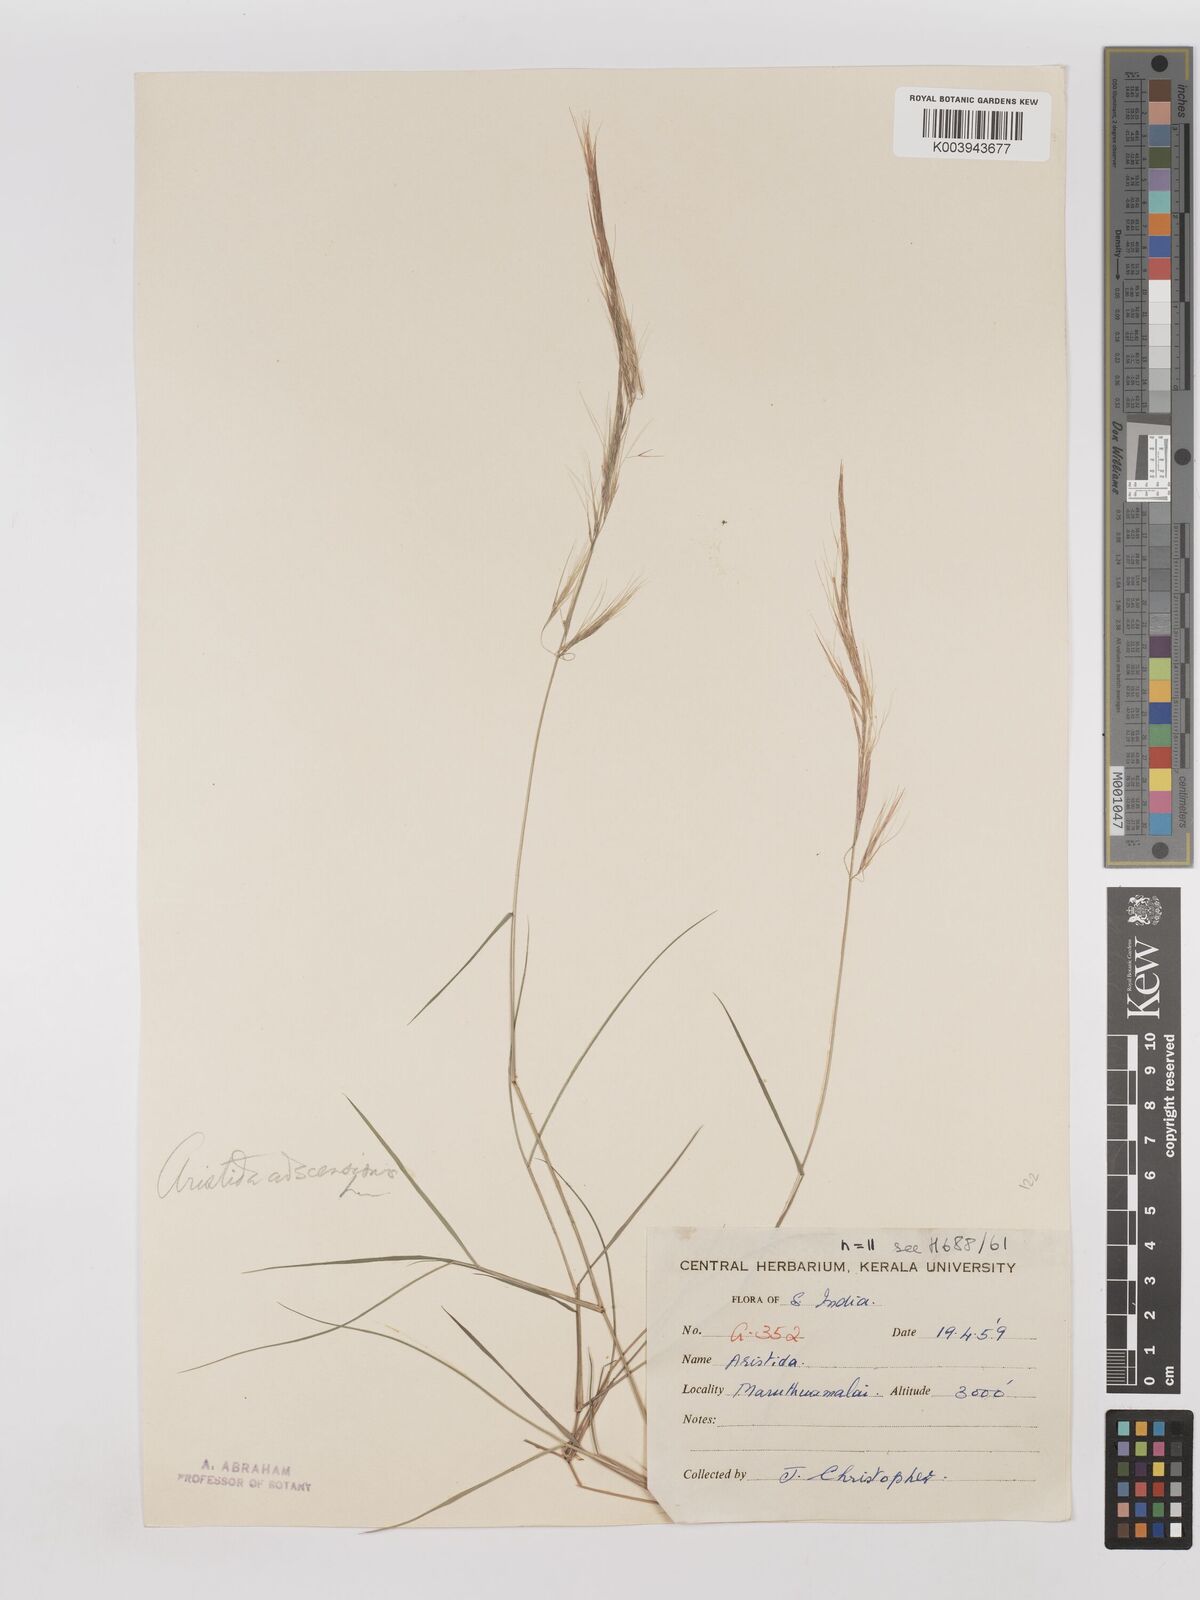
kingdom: Plantae
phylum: Tracheophyta
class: Liliopsida
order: Poales
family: Poaceae
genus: Aristida
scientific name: Aristida adscensionis
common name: Sixweeks threeawn
